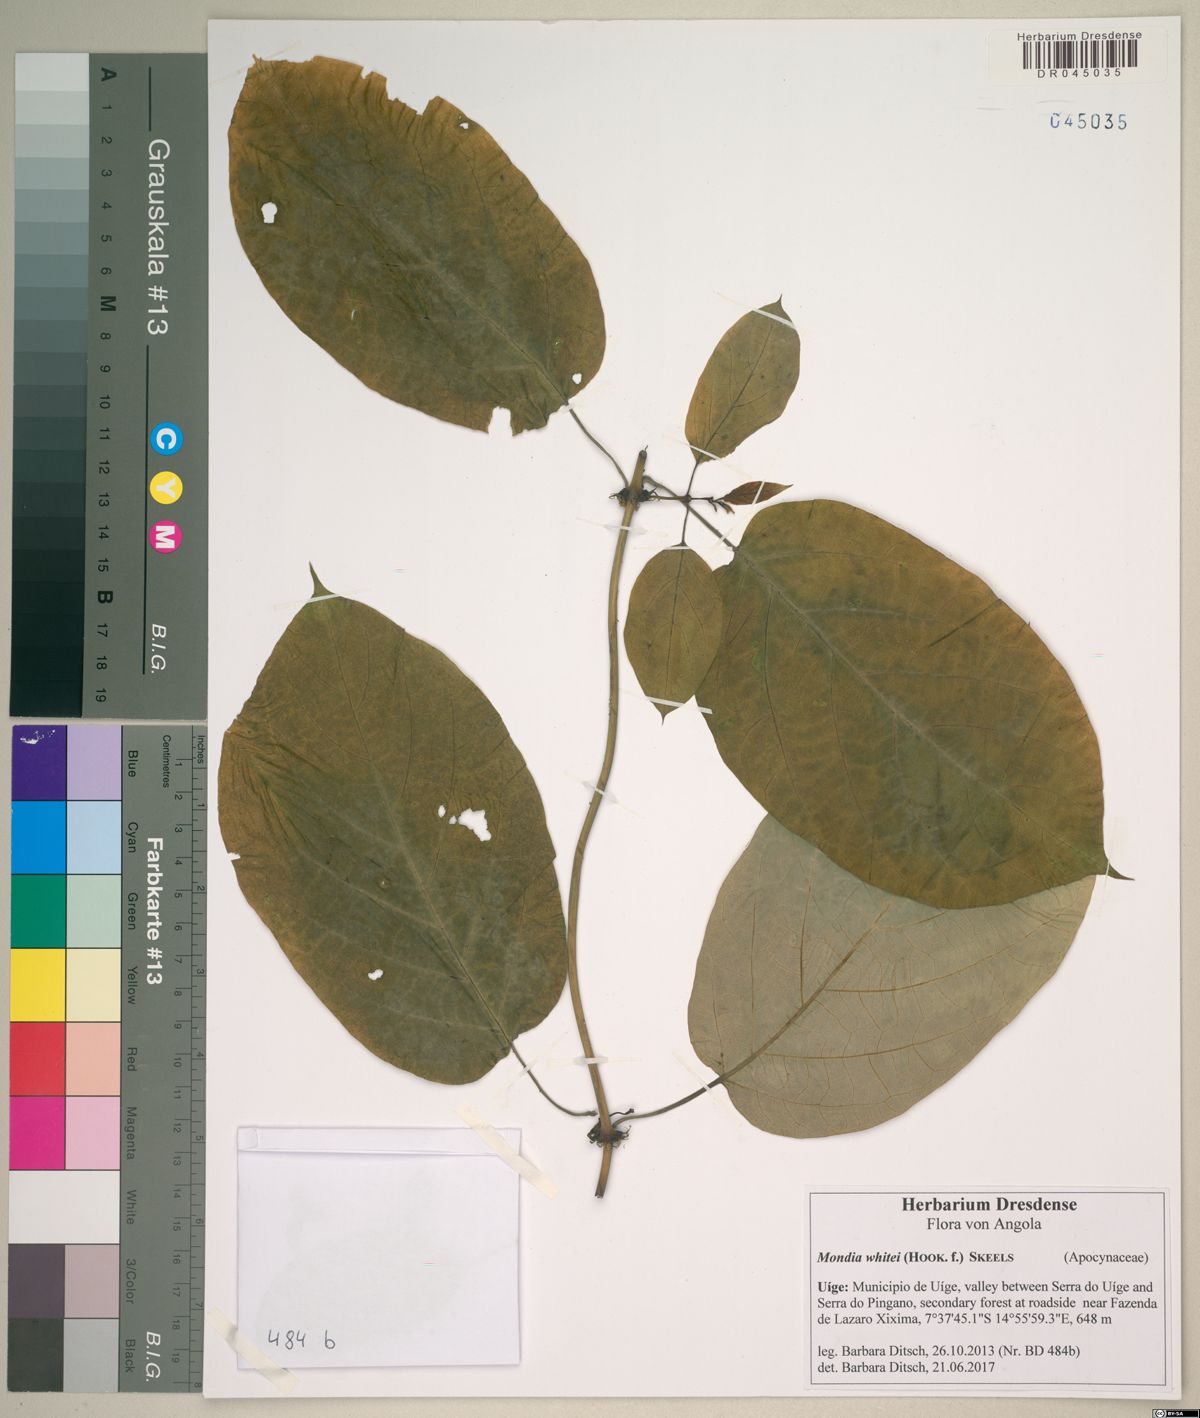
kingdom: Plantae
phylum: Tracheophyta
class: Magnoliopsida
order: Gentianales
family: Apocynaceae
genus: Mondia
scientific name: Mondia whitei
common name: Mondia
